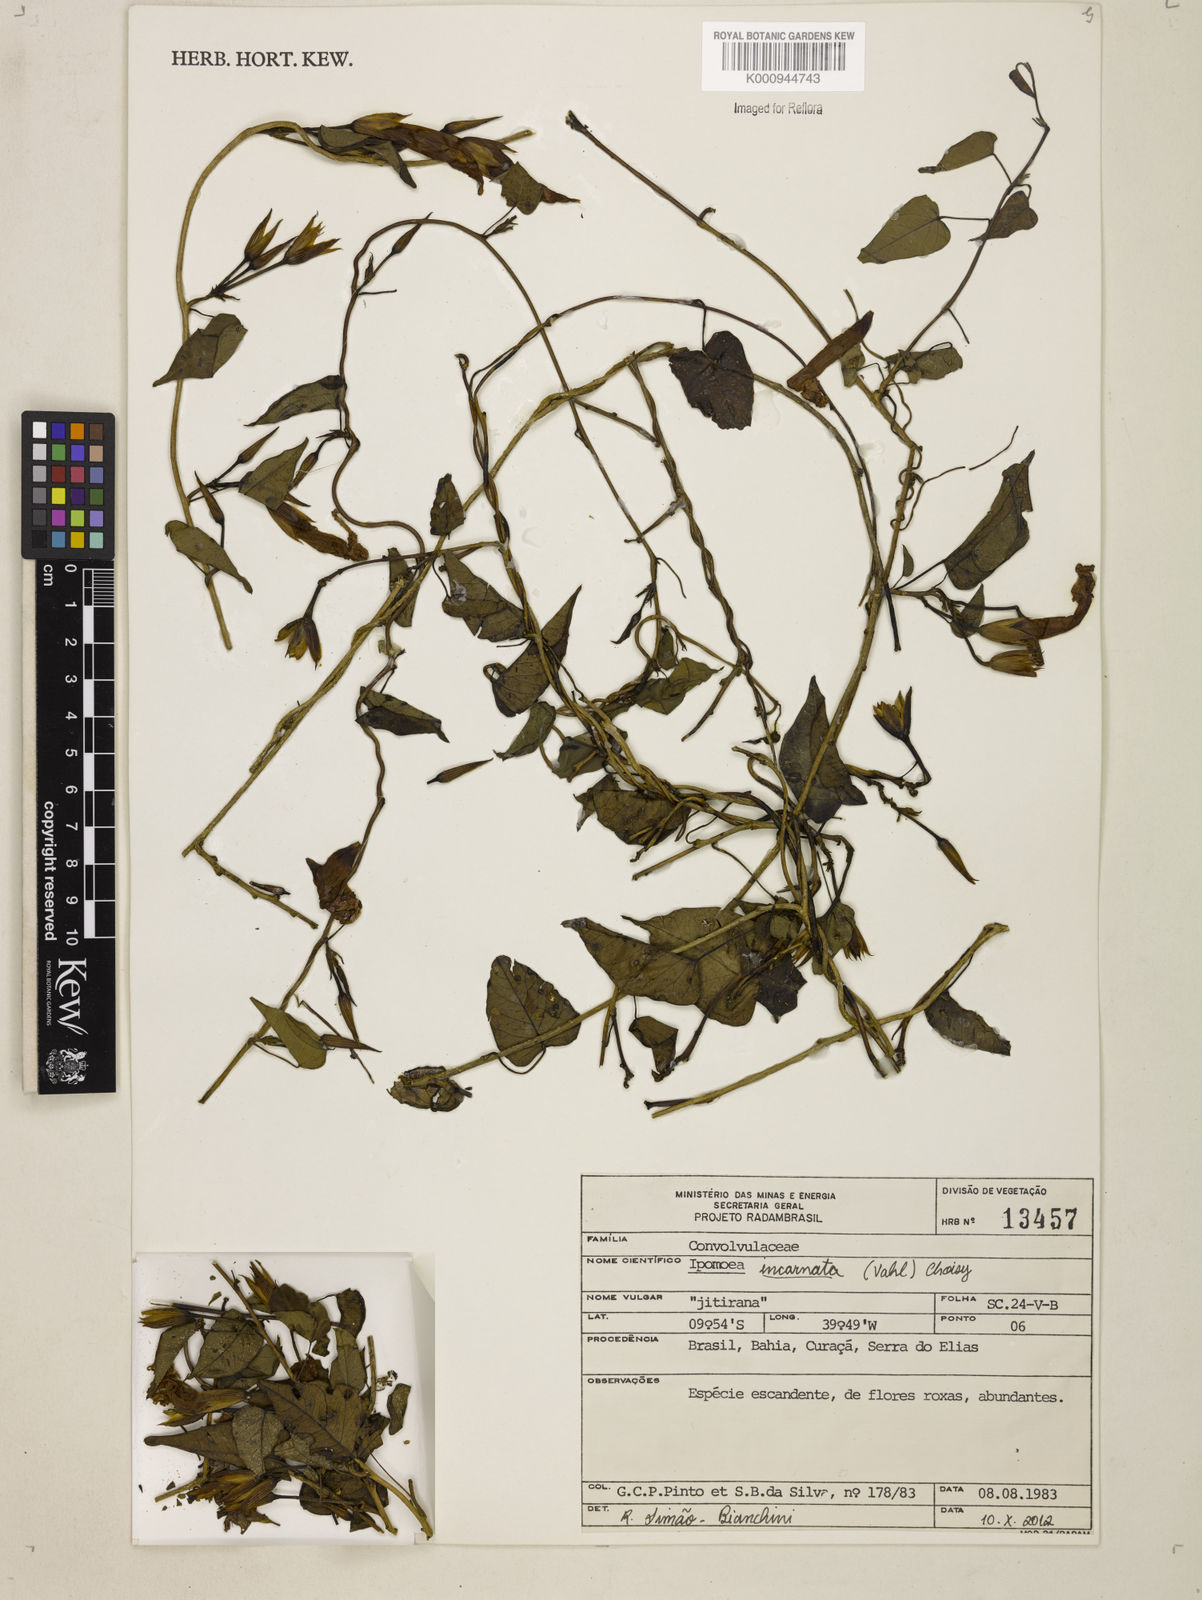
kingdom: Plantae
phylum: Tracheophyta
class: Magnoliopsida
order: Solanales
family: Convolvulaceae
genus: Ipomoea
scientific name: Ipomoea incarnata
